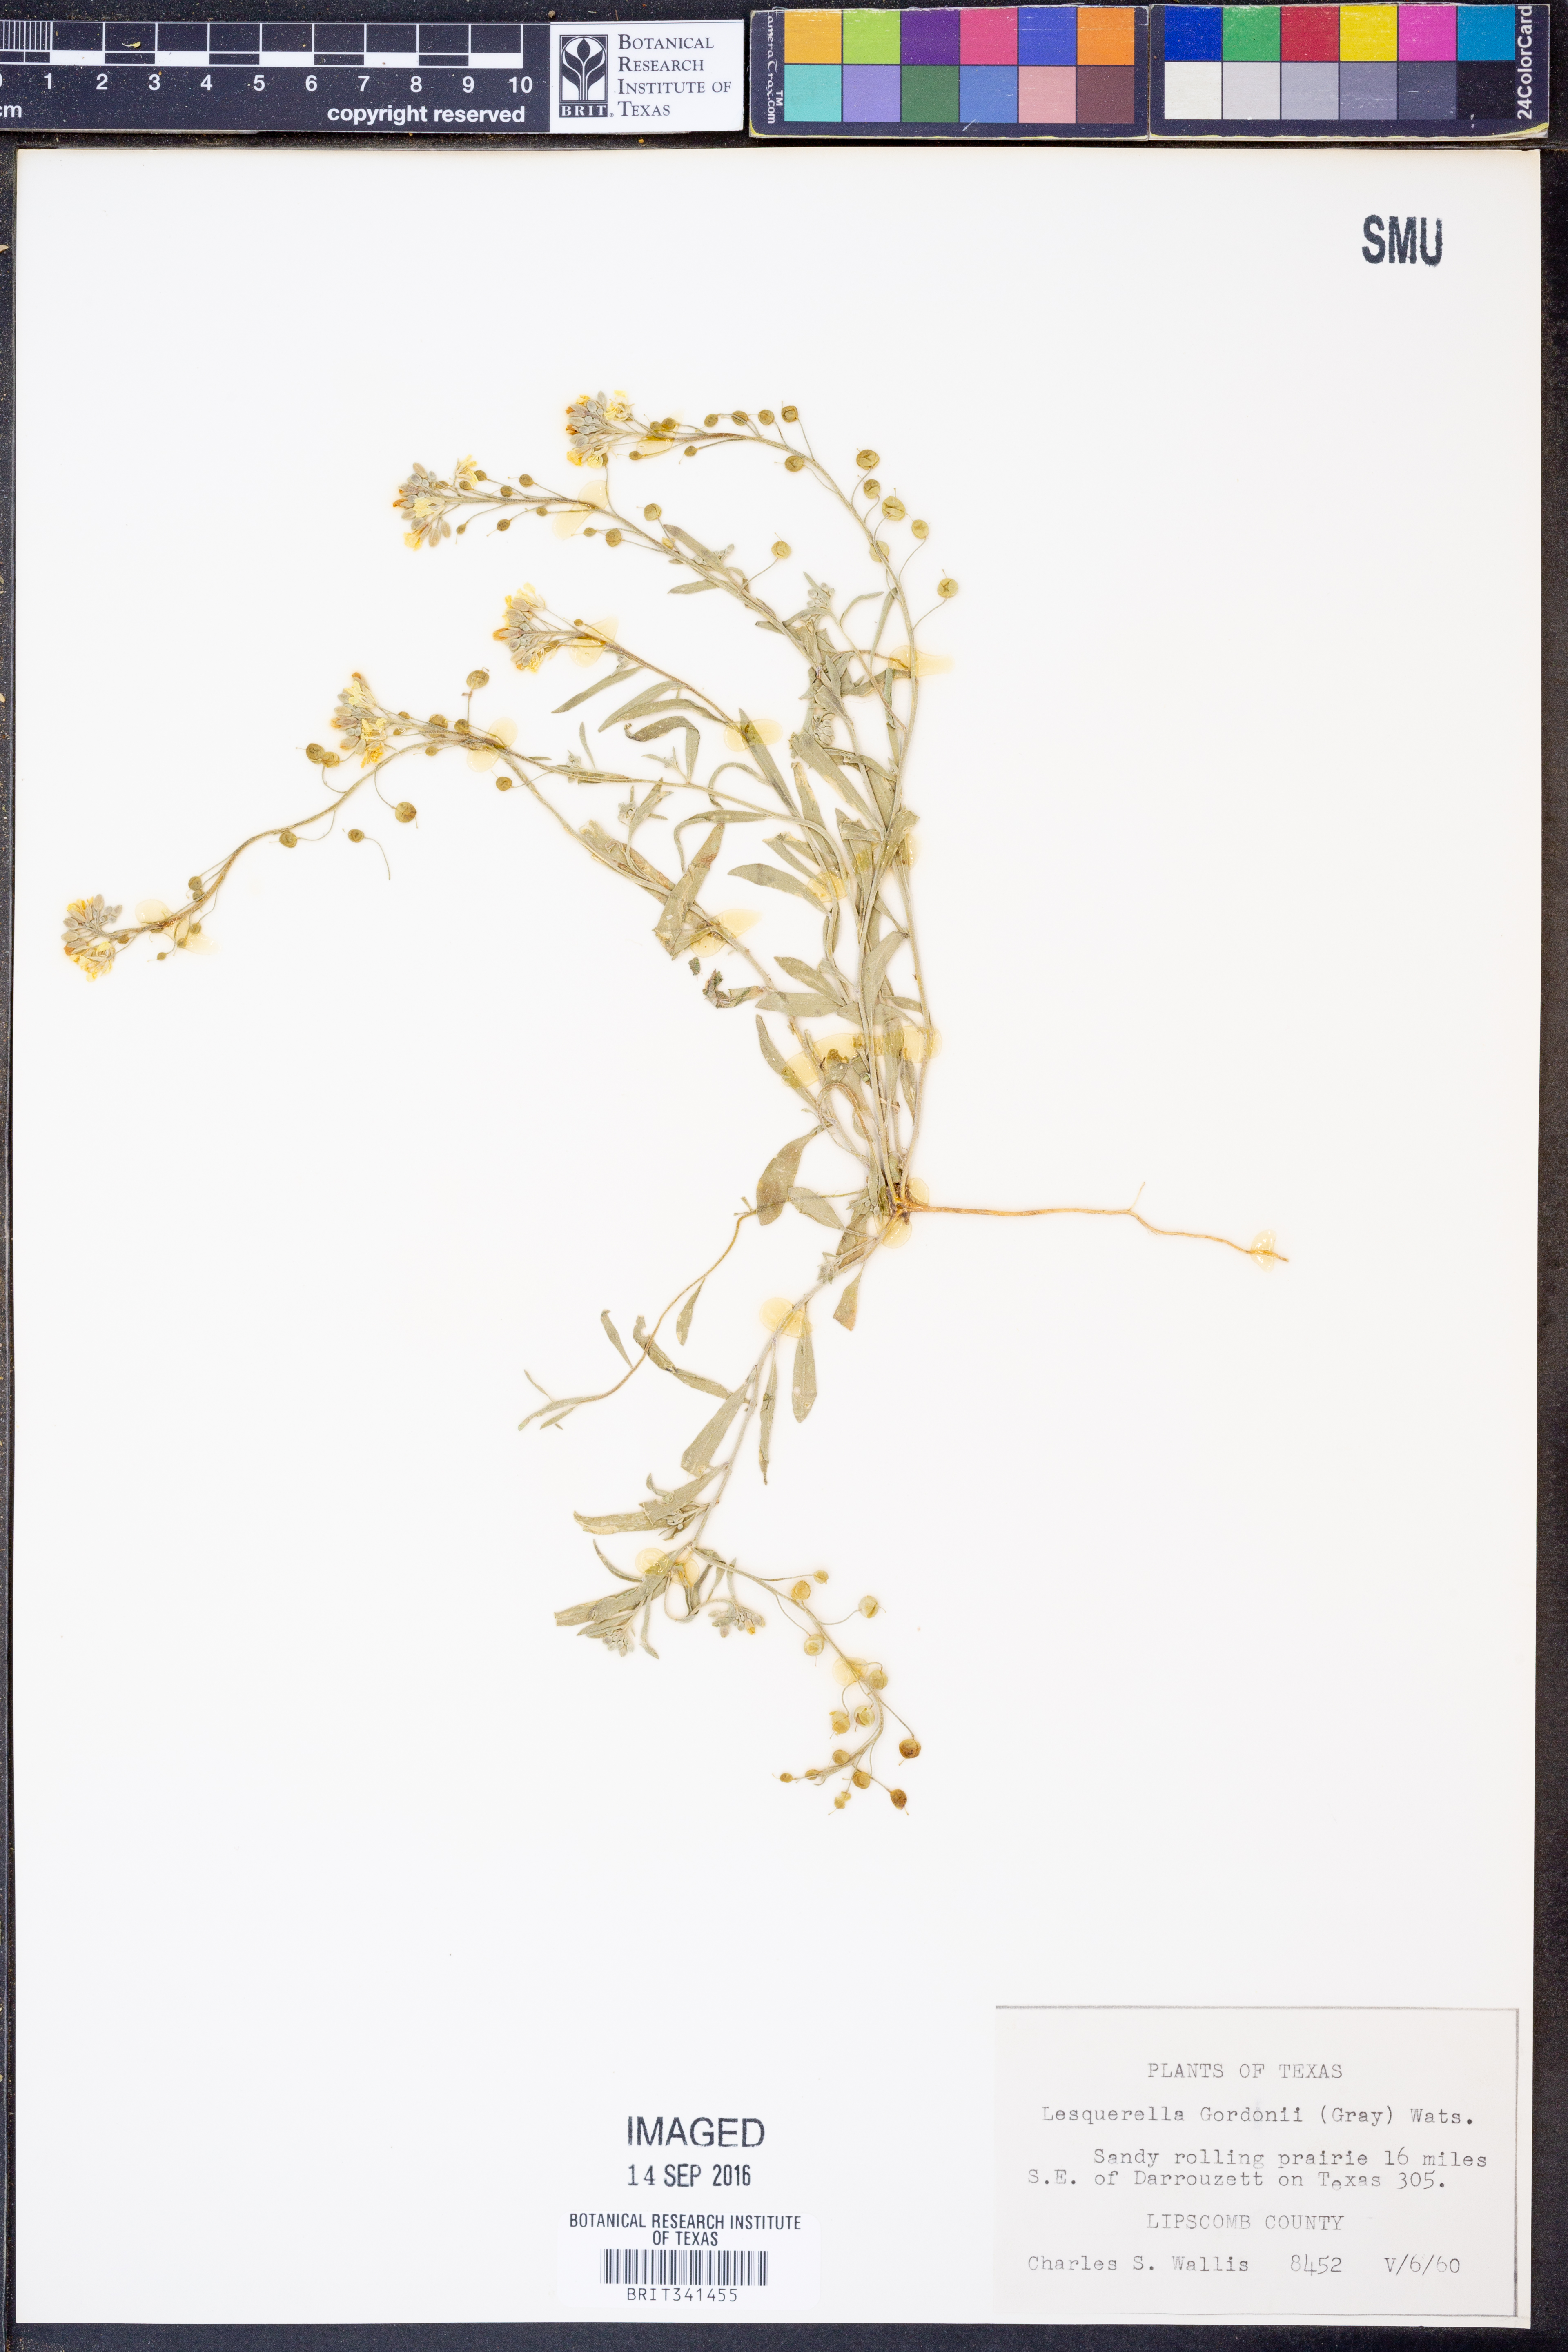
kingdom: Plantae
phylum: Tracheophyta
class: Magnoliopsida
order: Brassicales
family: Brassicaceae
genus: Physaria
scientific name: Physaria gordonii
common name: Gordon's bladderpod
